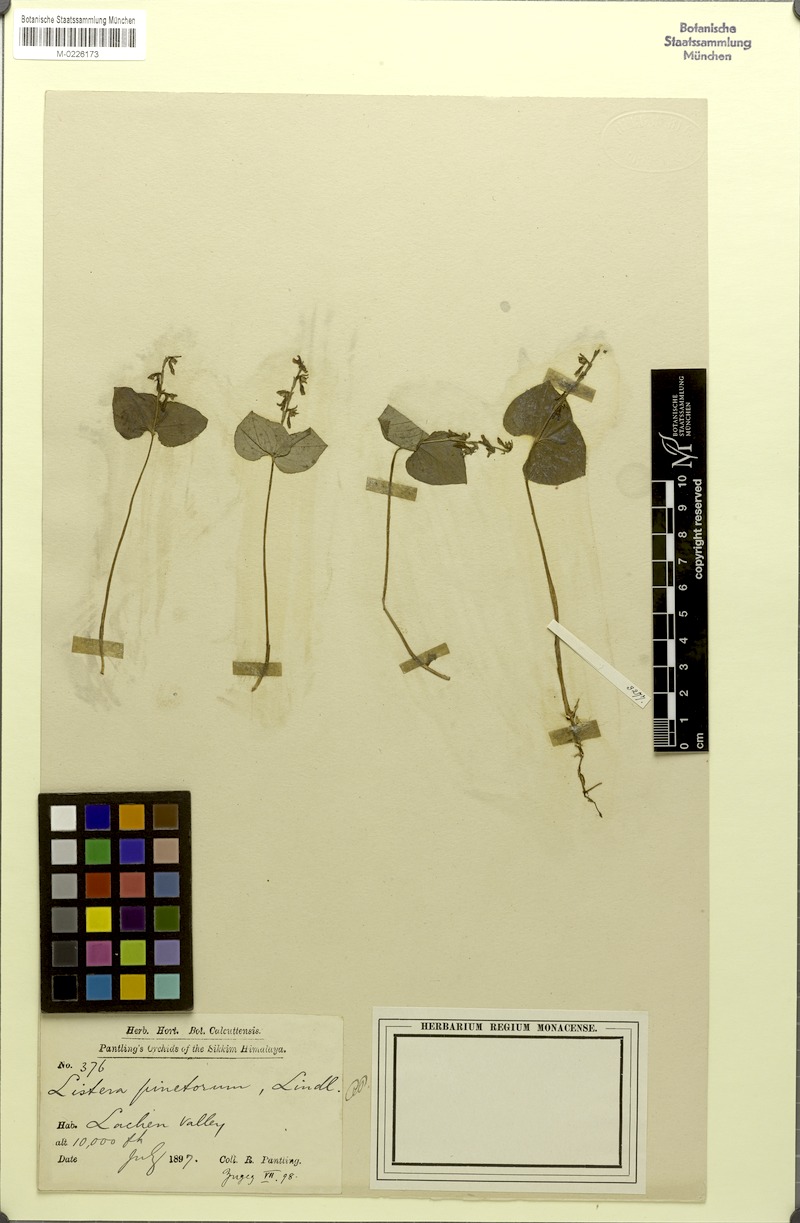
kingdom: Plantae
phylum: Tracheophyta
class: Liliopsida
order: Asparagales
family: Orchidaceae
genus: Neottia
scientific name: Neottia pinetorum
